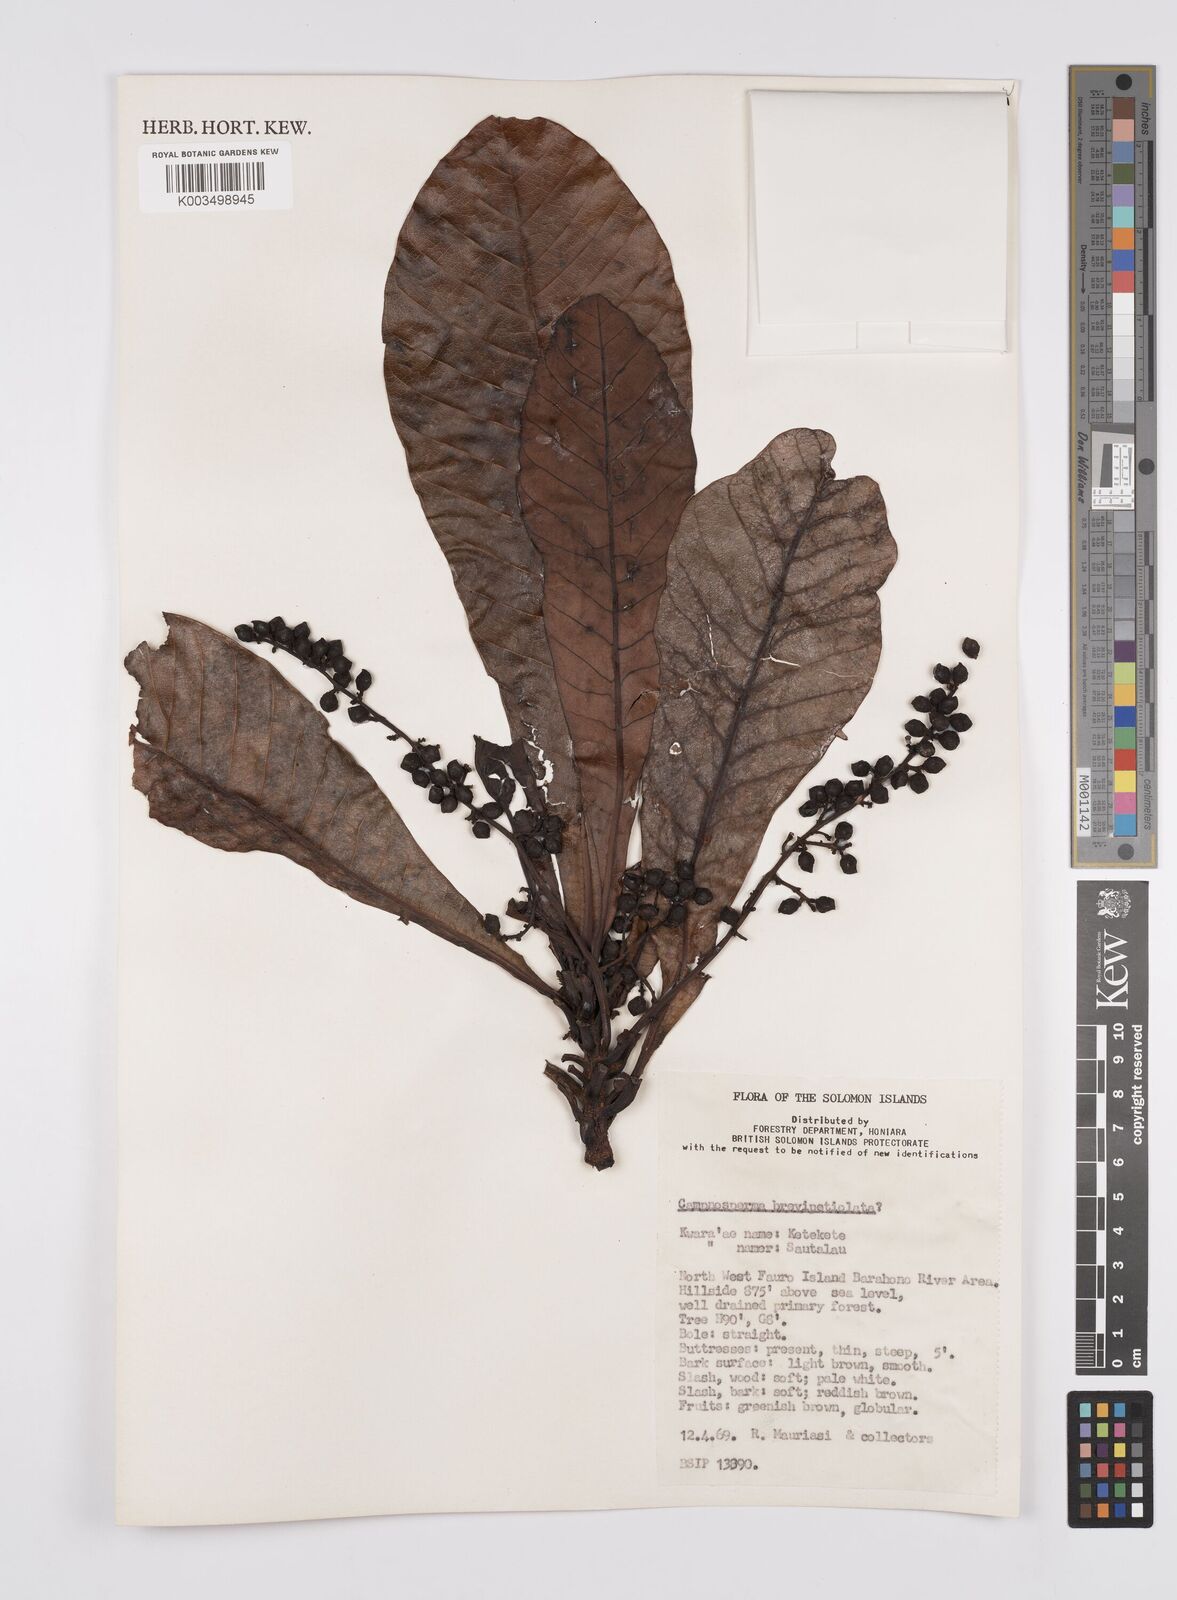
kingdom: Plantae
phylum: Tracheophyta
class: Magnoliopsida
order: Sapindales
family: Anacardiaceae
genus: Campnosperma
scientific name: Campnosperma brevipetiolatum
